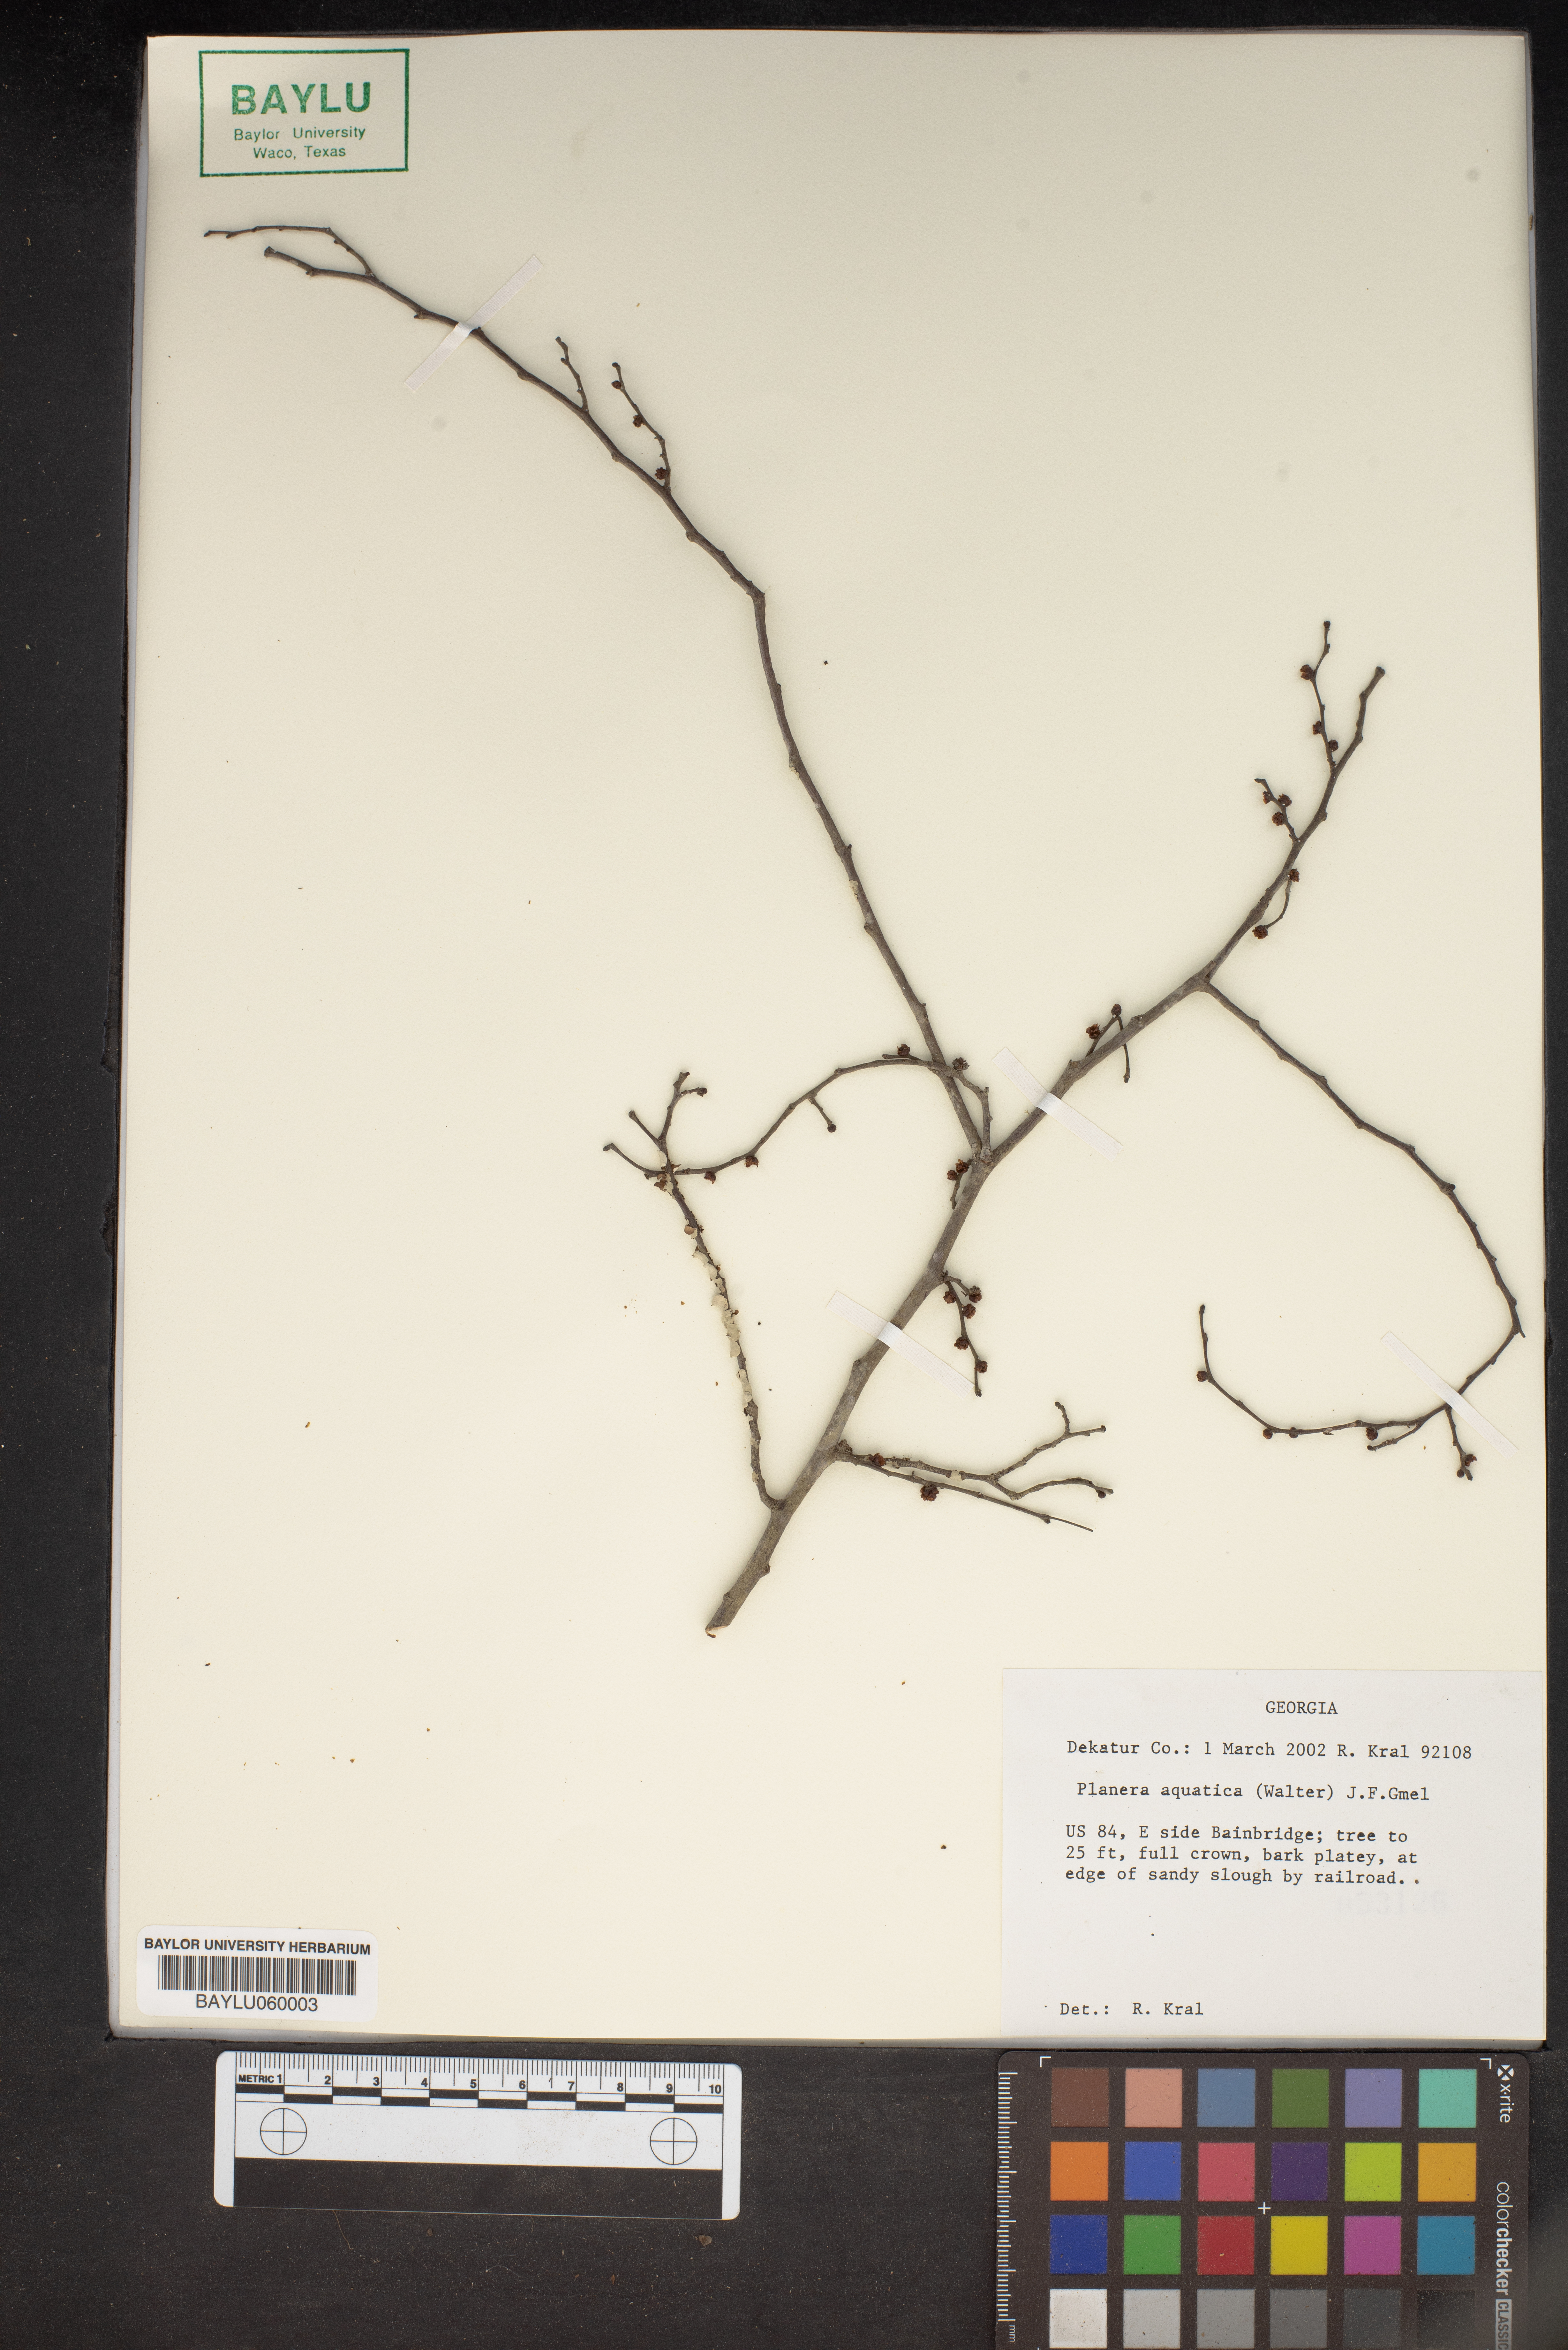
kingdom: Plantae
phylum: Tracheophyta
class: Magnoliopsida
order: Rosales
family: Ulmaceae
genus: Planera
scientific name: Planera aquatica
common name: Water-elm
